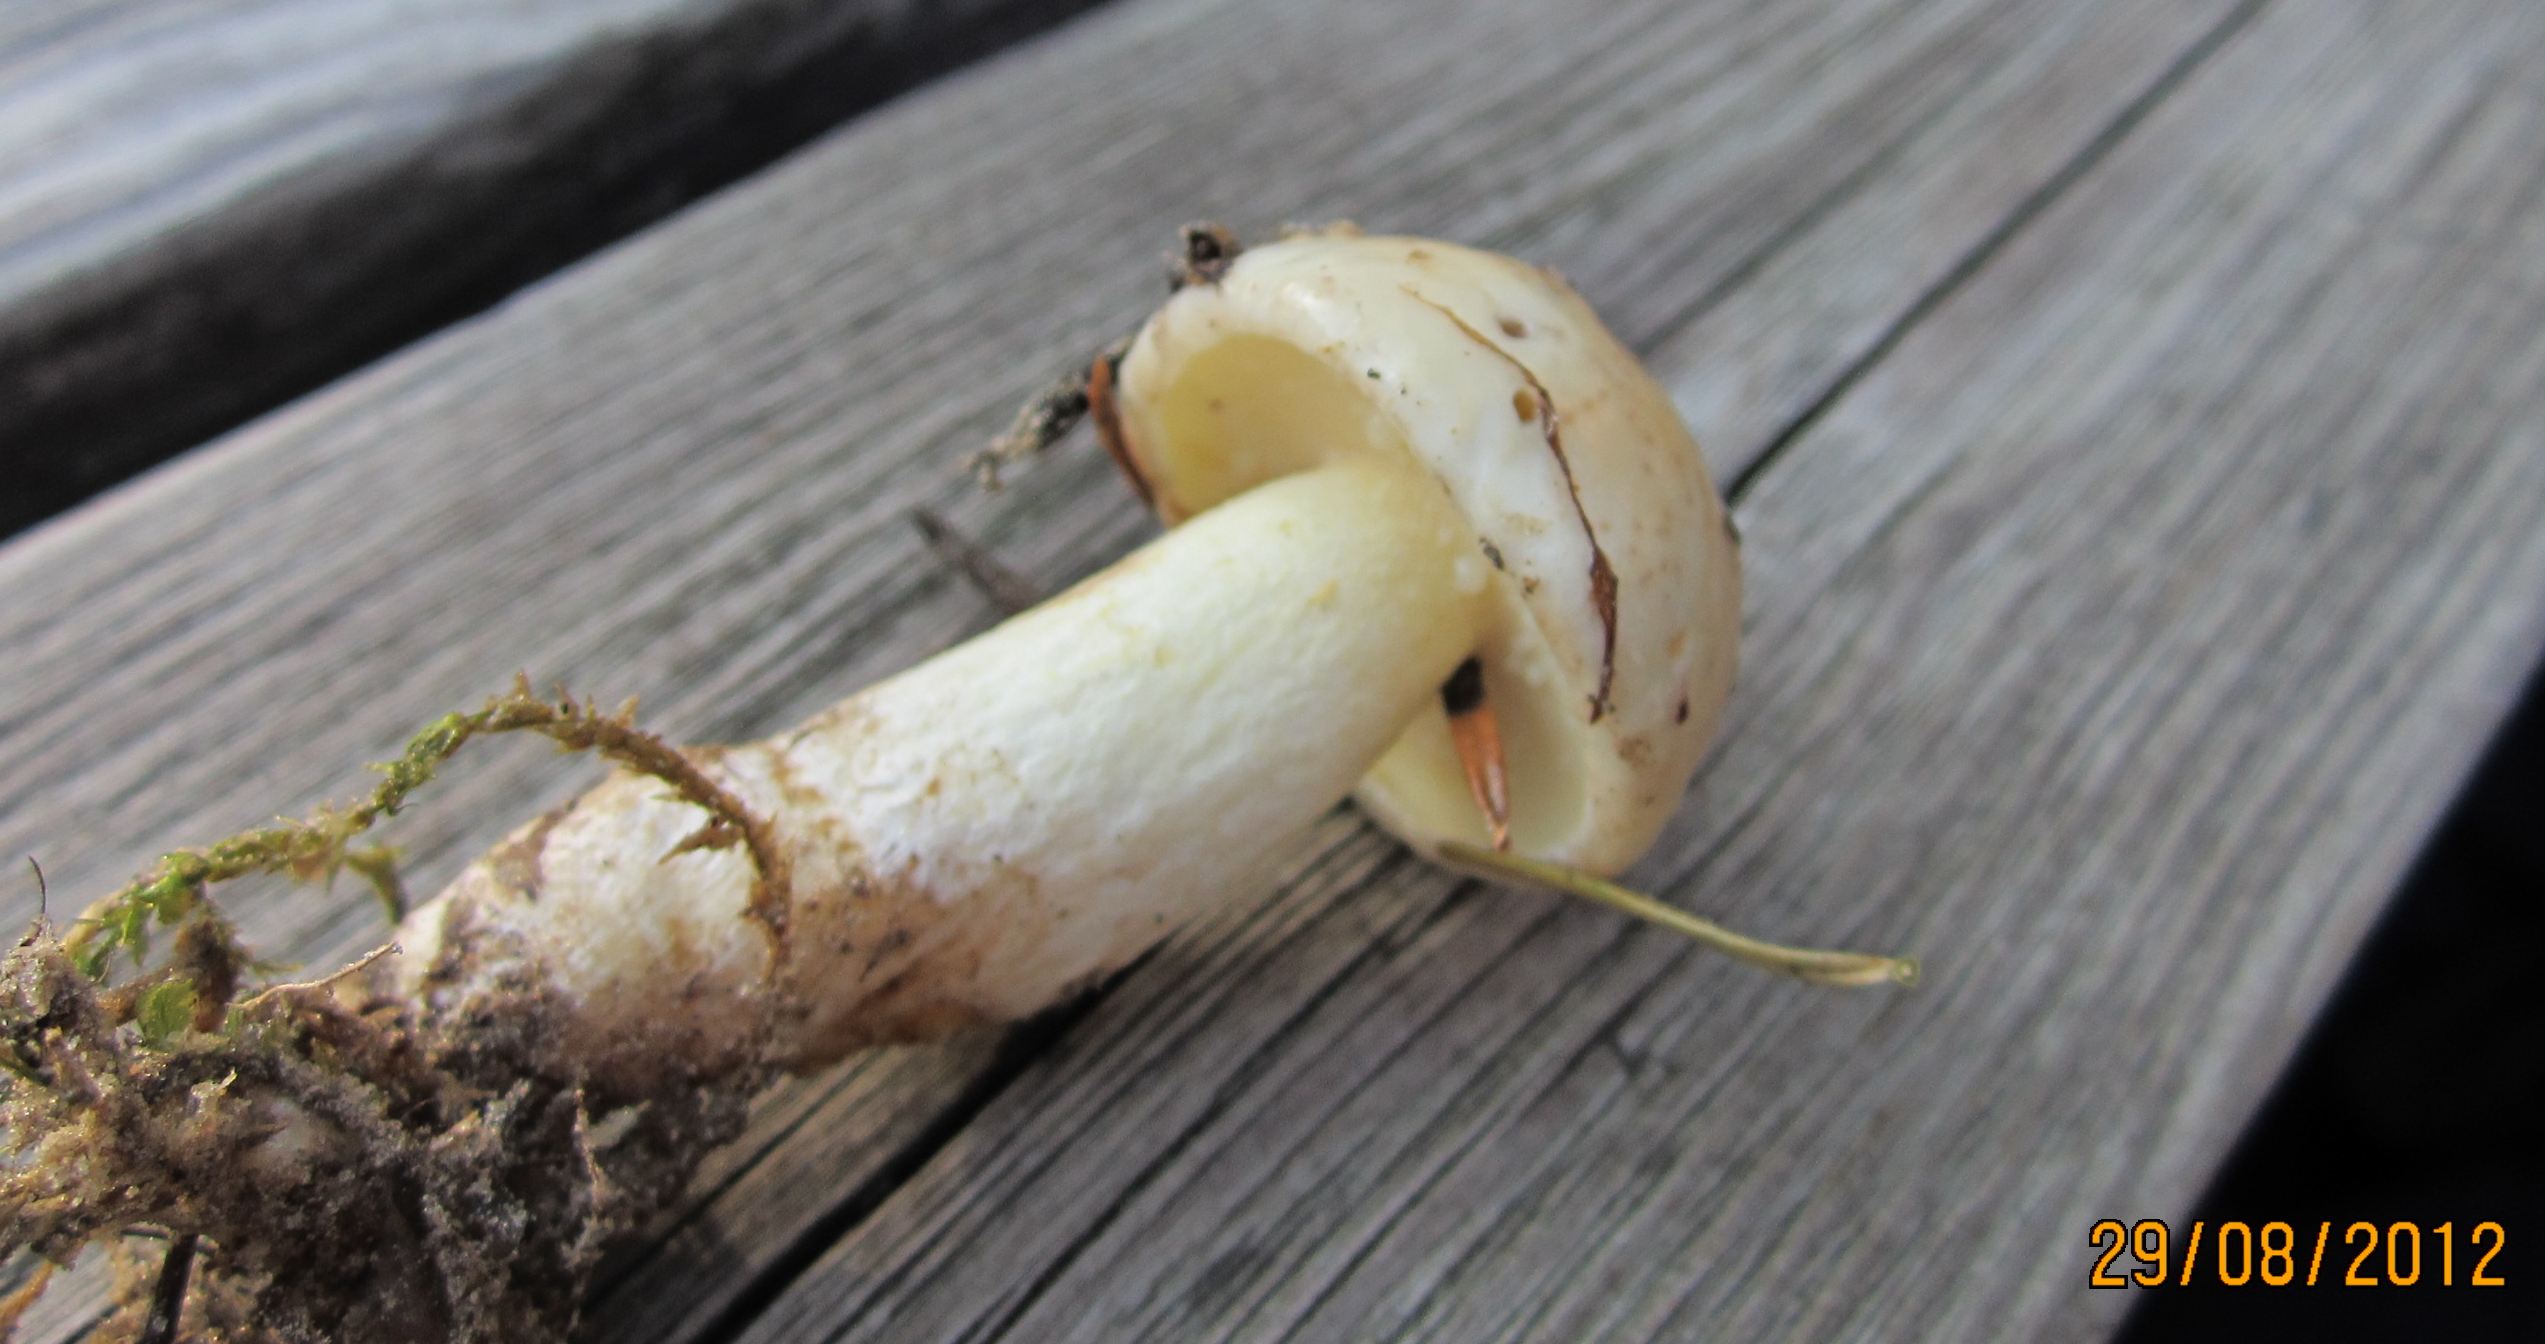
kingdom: Fungi
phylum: Basidiomycota
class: Agaricomycetes
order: Boletales
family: Suillaceae
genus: Suillus
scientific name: Suillus granulatus
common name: kornet slimrørhat
